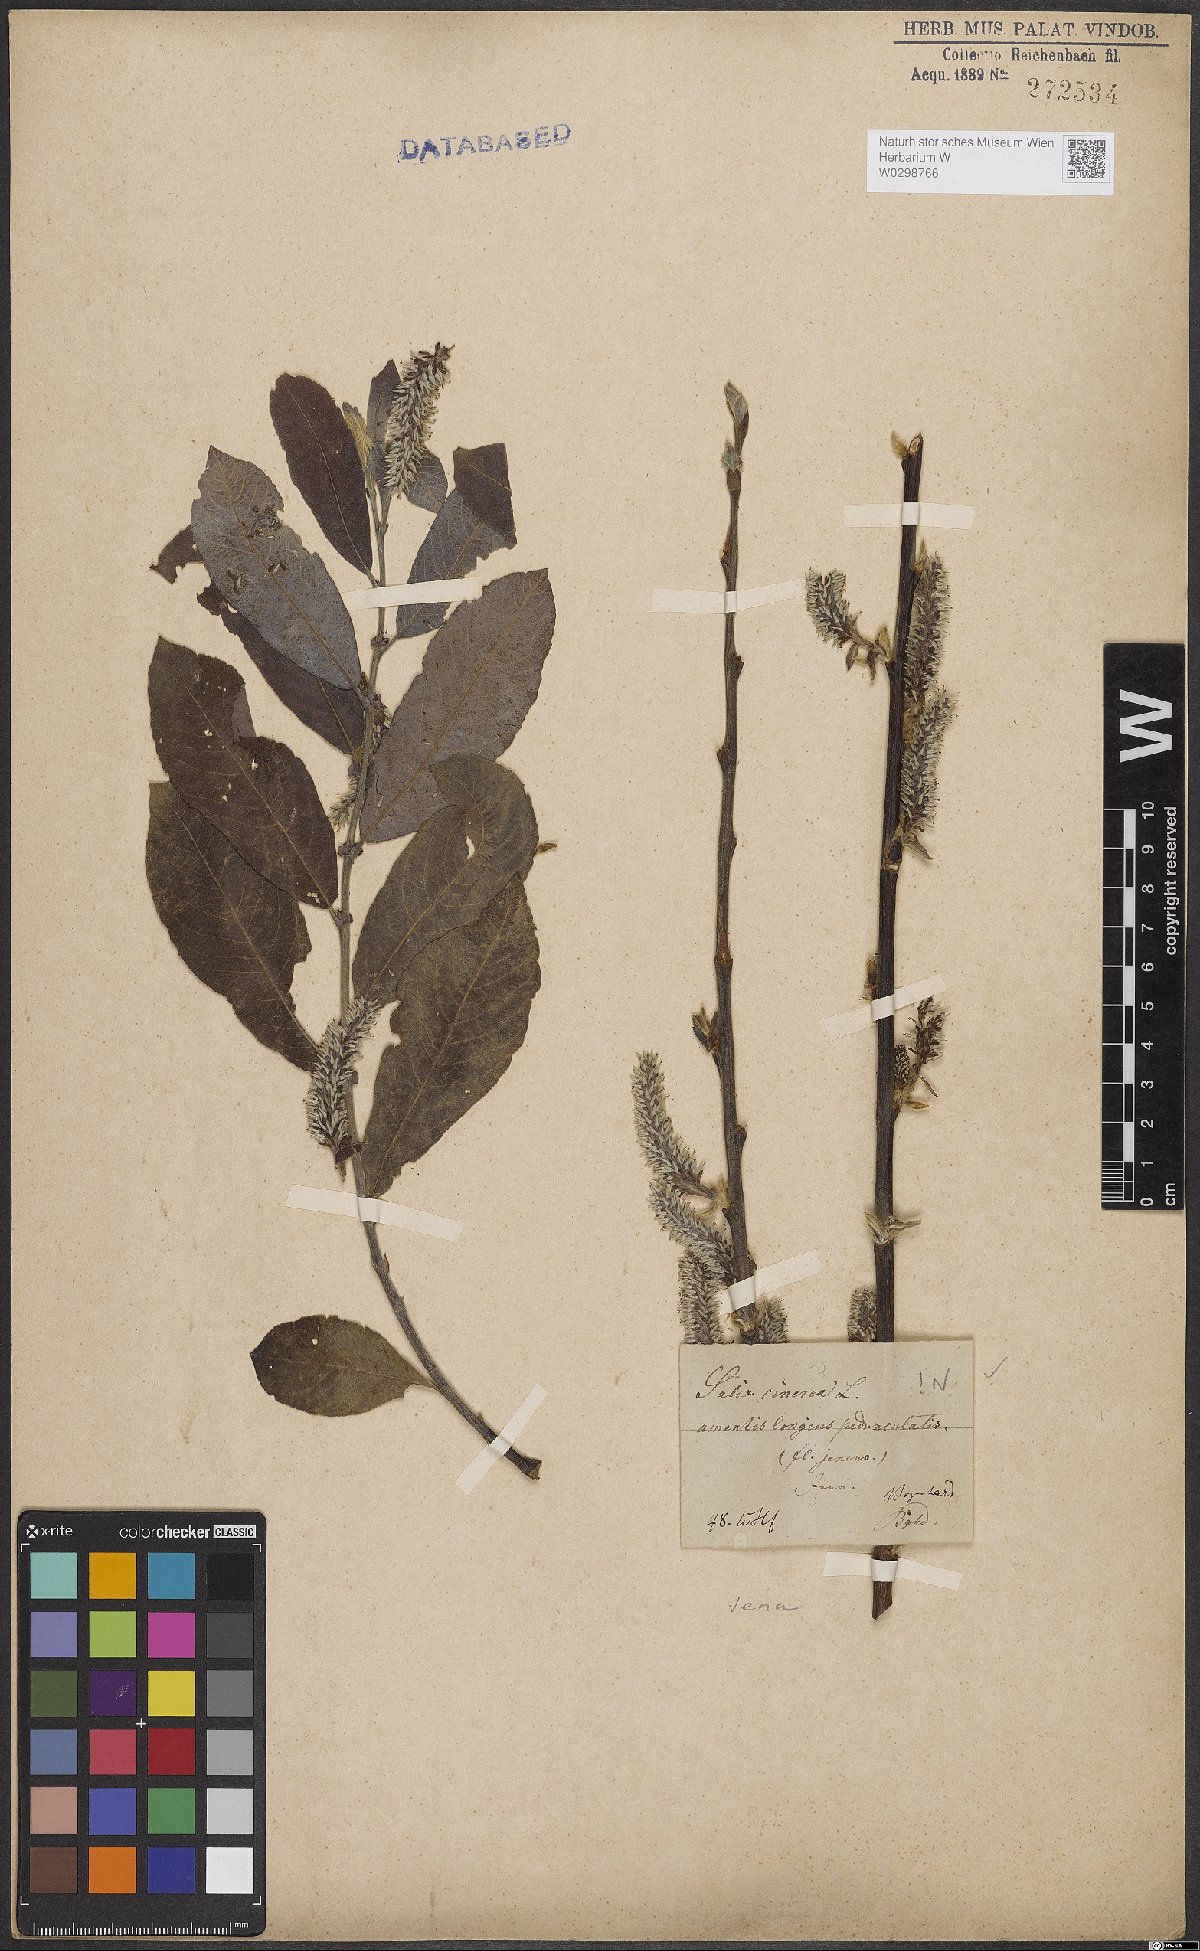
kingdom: Plantae
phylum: Tracheophyta
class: Magnoliopsida
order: Malpighiales
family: Salicaceae
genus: Salix
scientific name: Salix cinerea
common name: Common sallow
